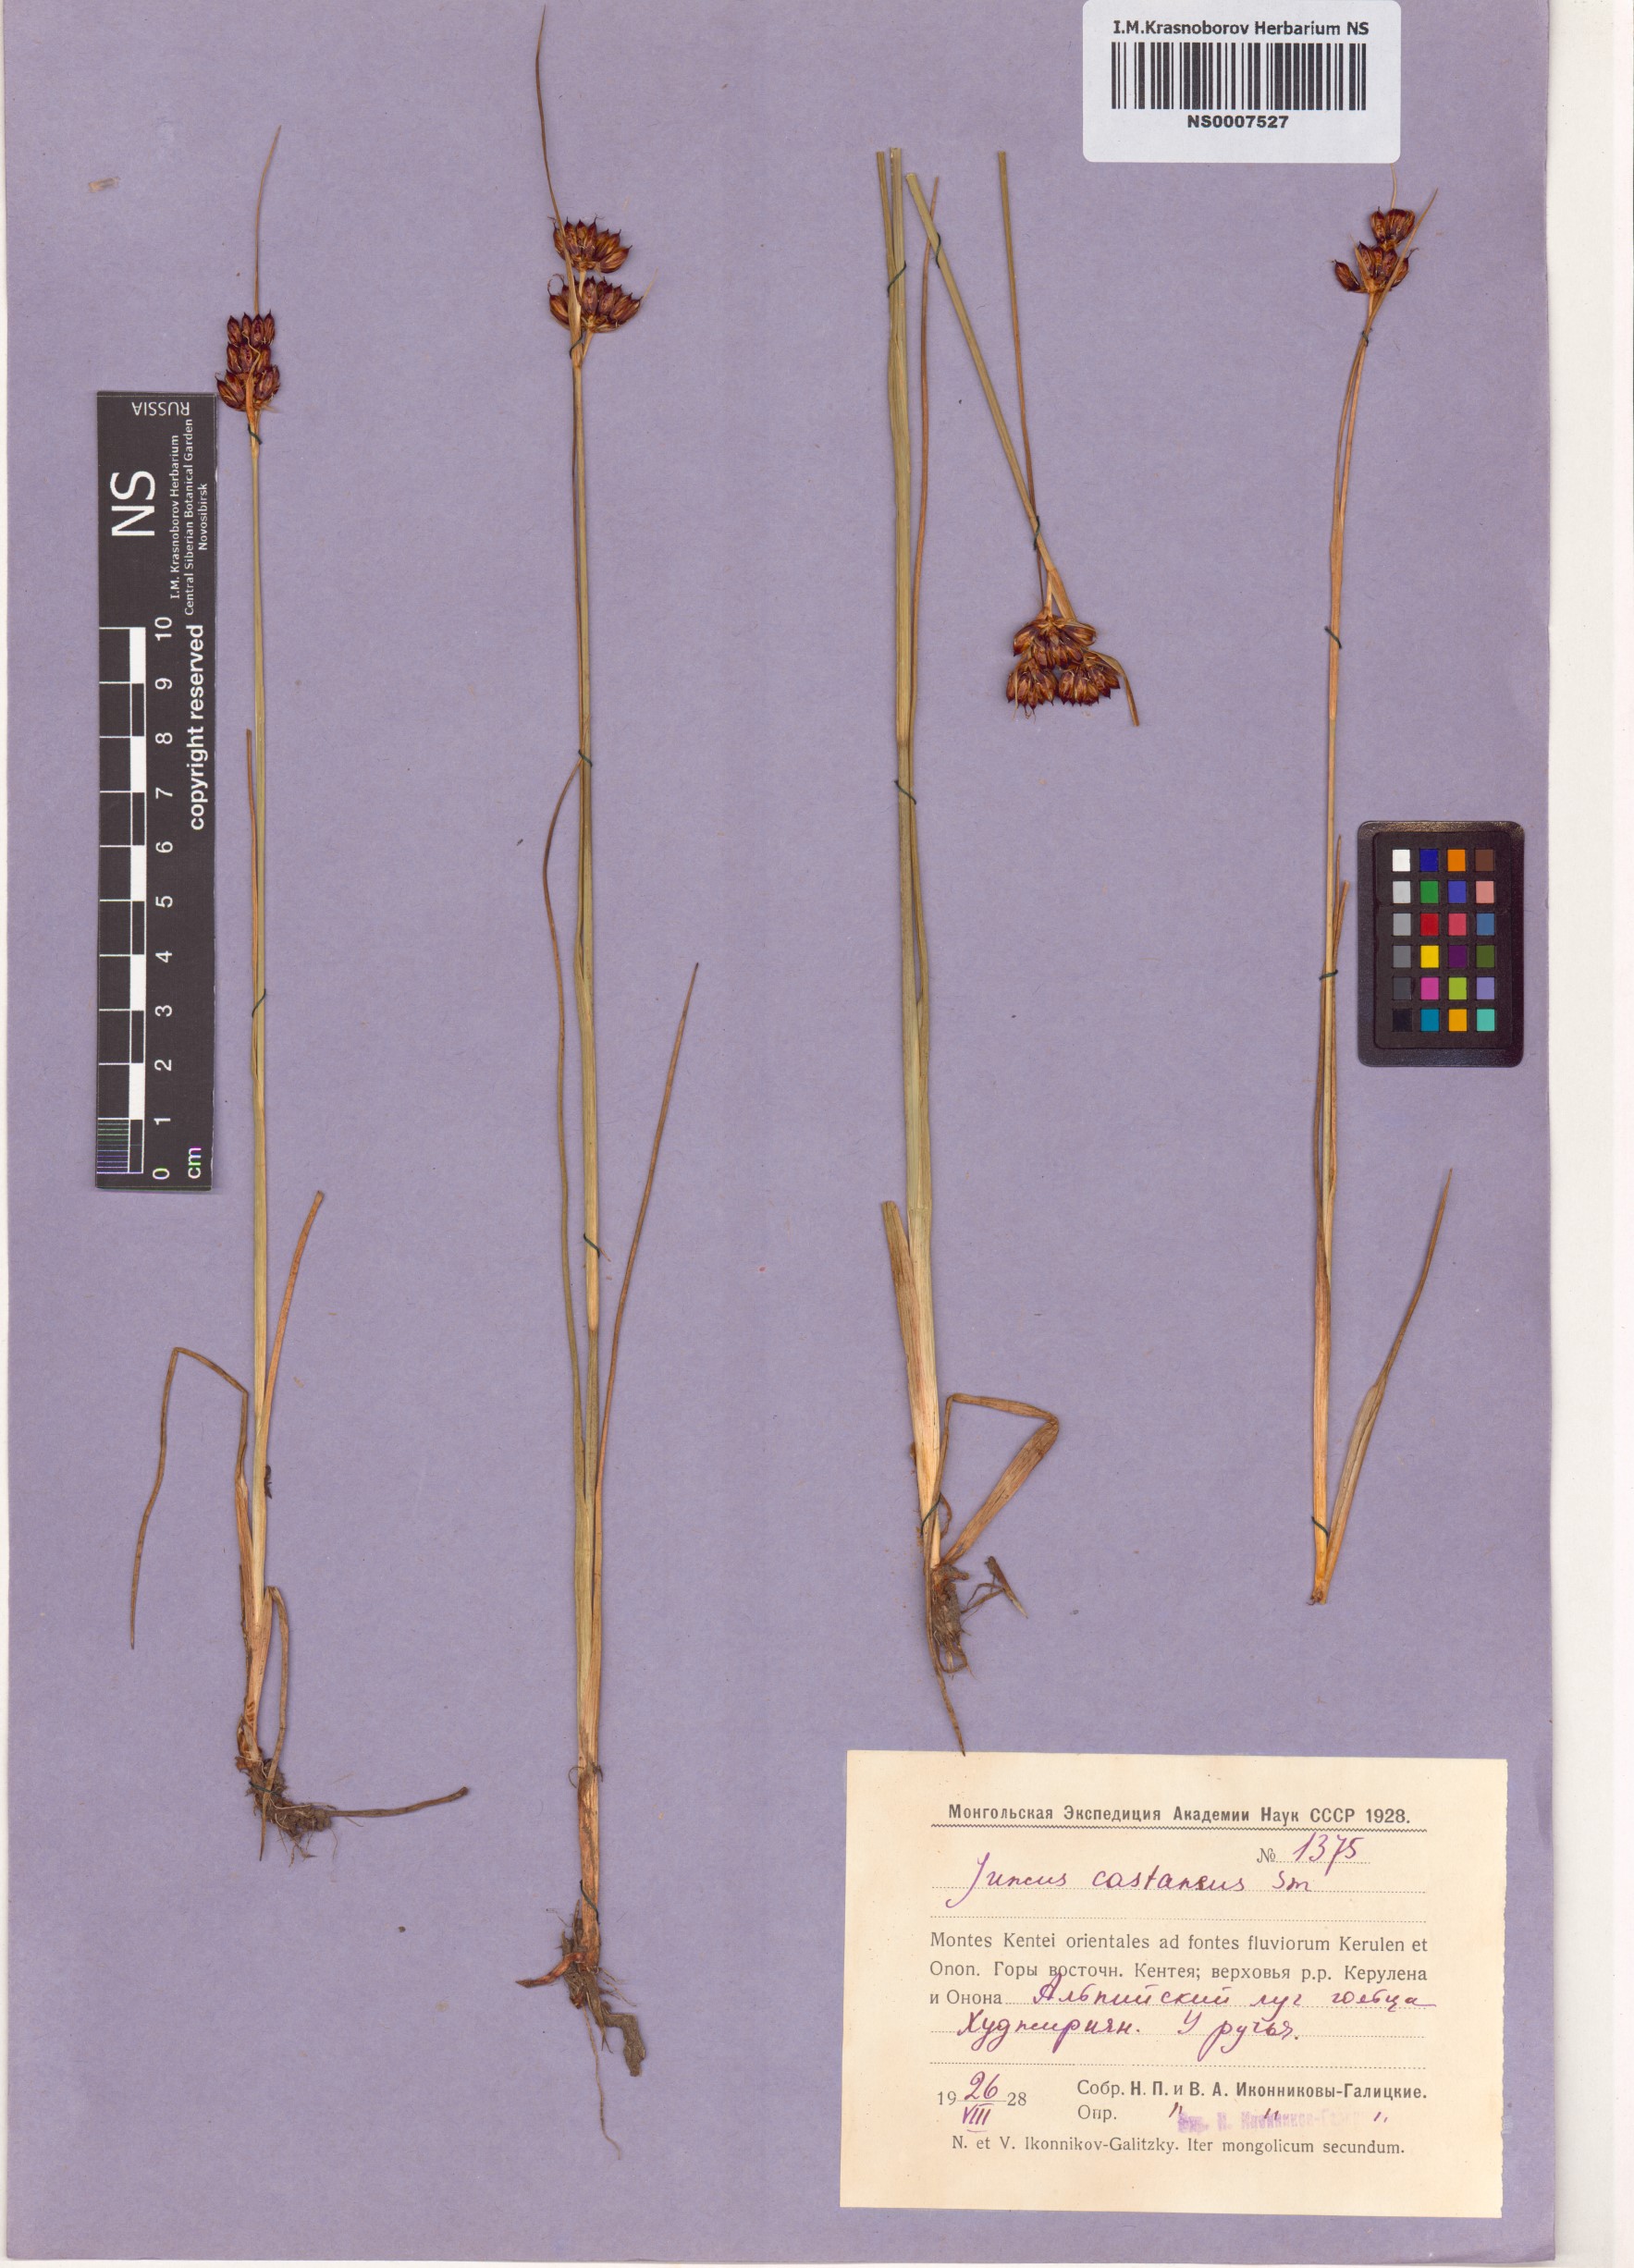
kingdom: Plantae
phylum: Tracheophyta
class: Liliopsida
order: Poales
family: Juncaceae
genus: Juncus
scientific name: Juncus castaneus
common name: Chestnut rush
